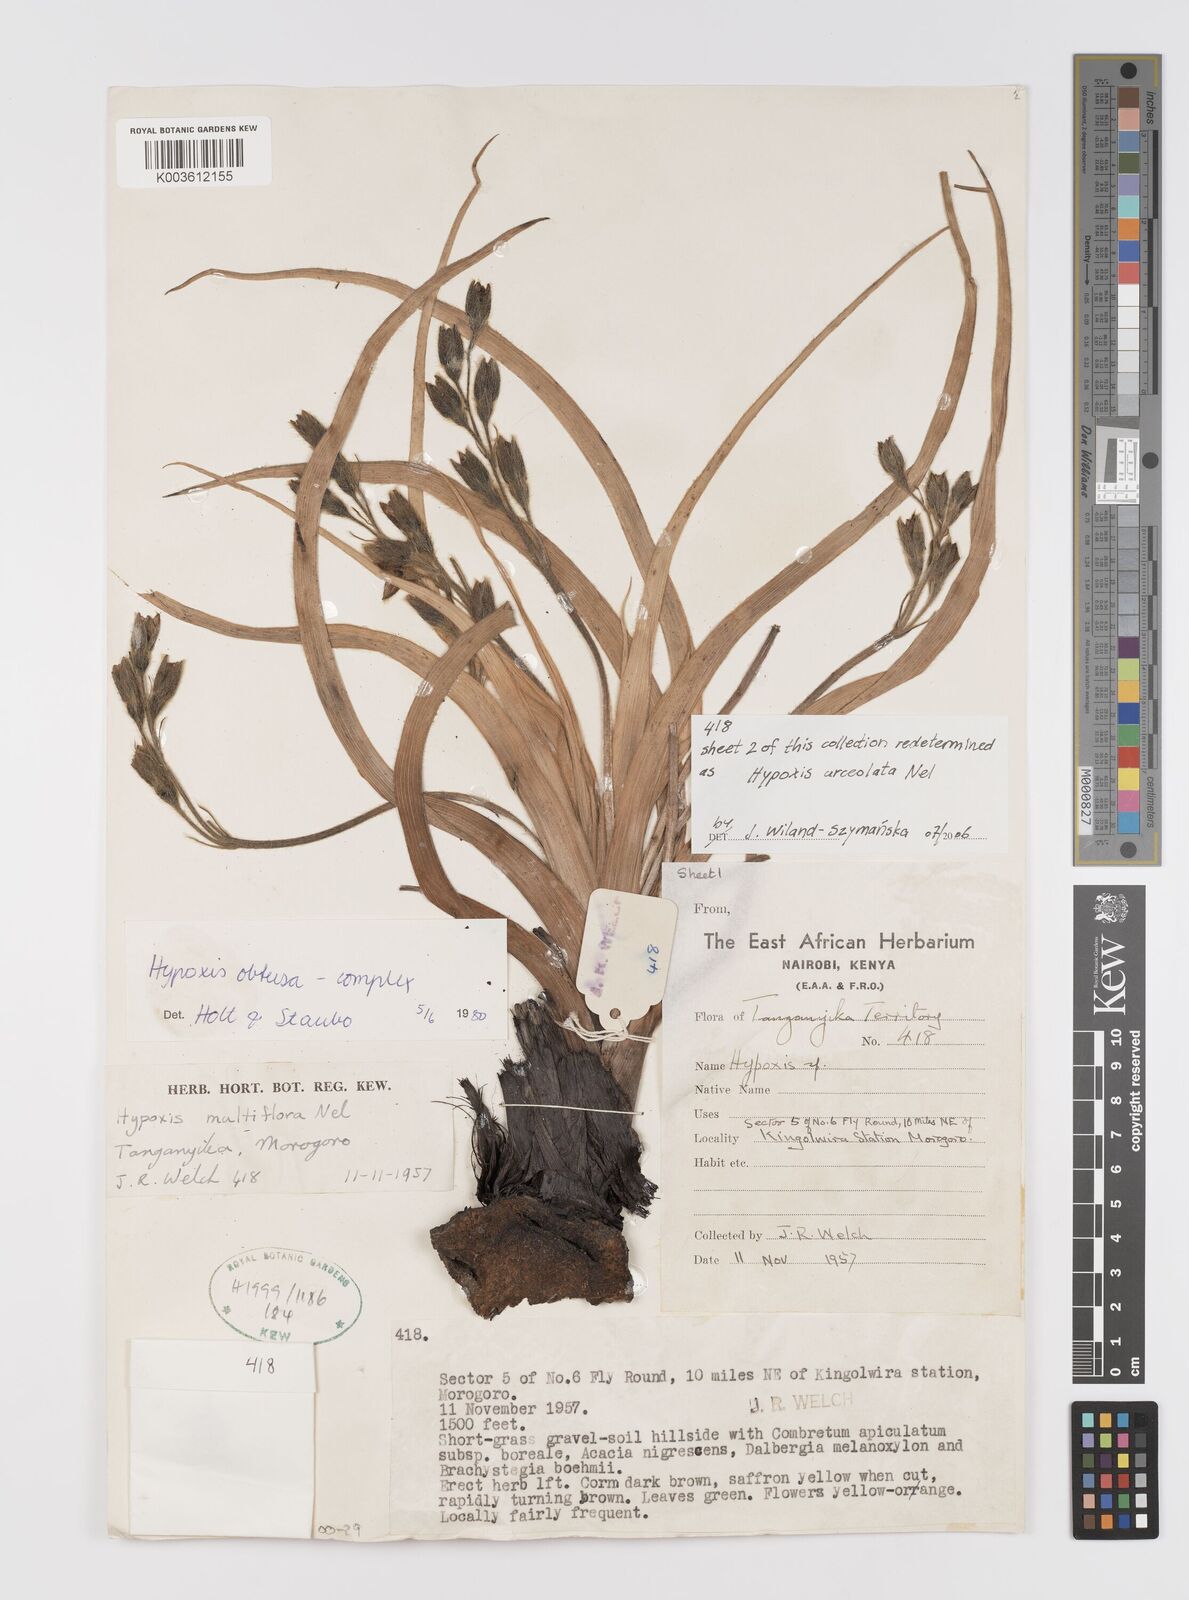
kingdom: Plantae
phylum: Tracheophyta
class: Liliopsida
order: Asparagales
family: Hypoxidaceae
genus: Hypoxis
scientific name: Hypoxis urceolata
